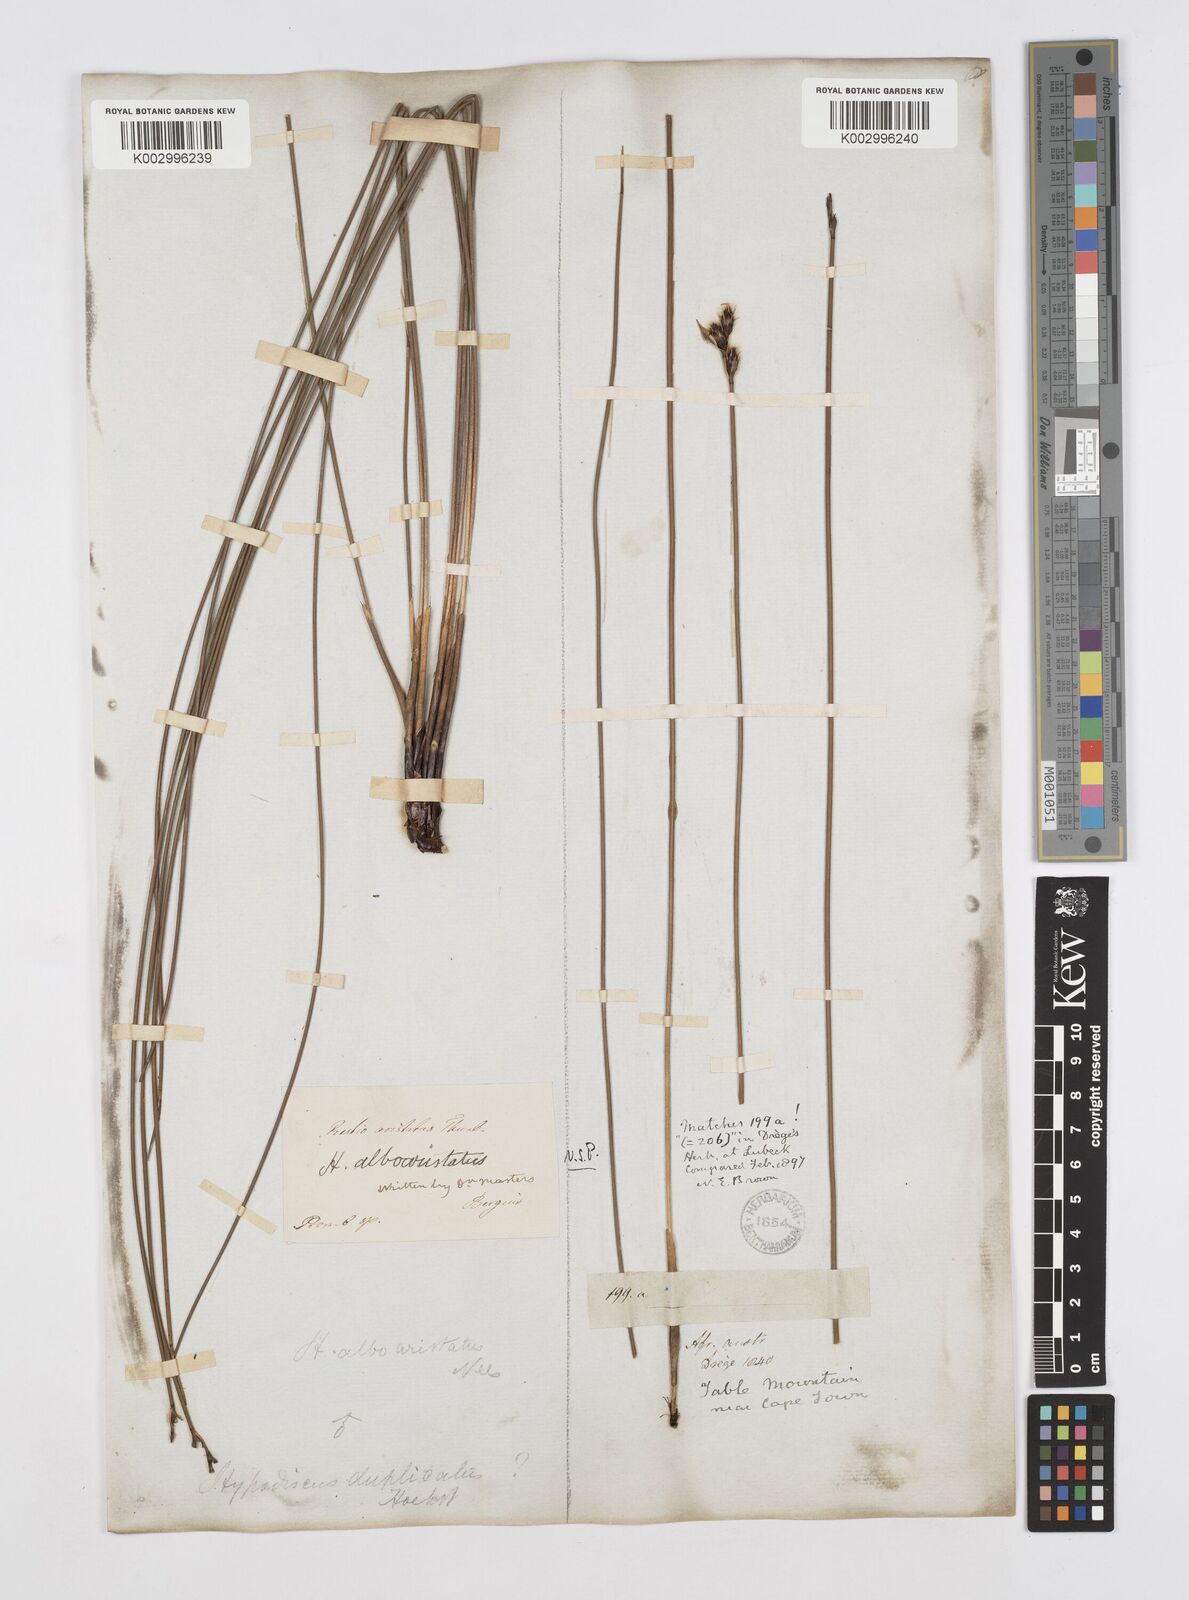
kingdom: Plantae
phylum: Tracheophyta
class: Liliopsida
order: Poales
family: Restionaceae
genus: Hypodiscus
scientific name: Hypodiscus alboaristatus
